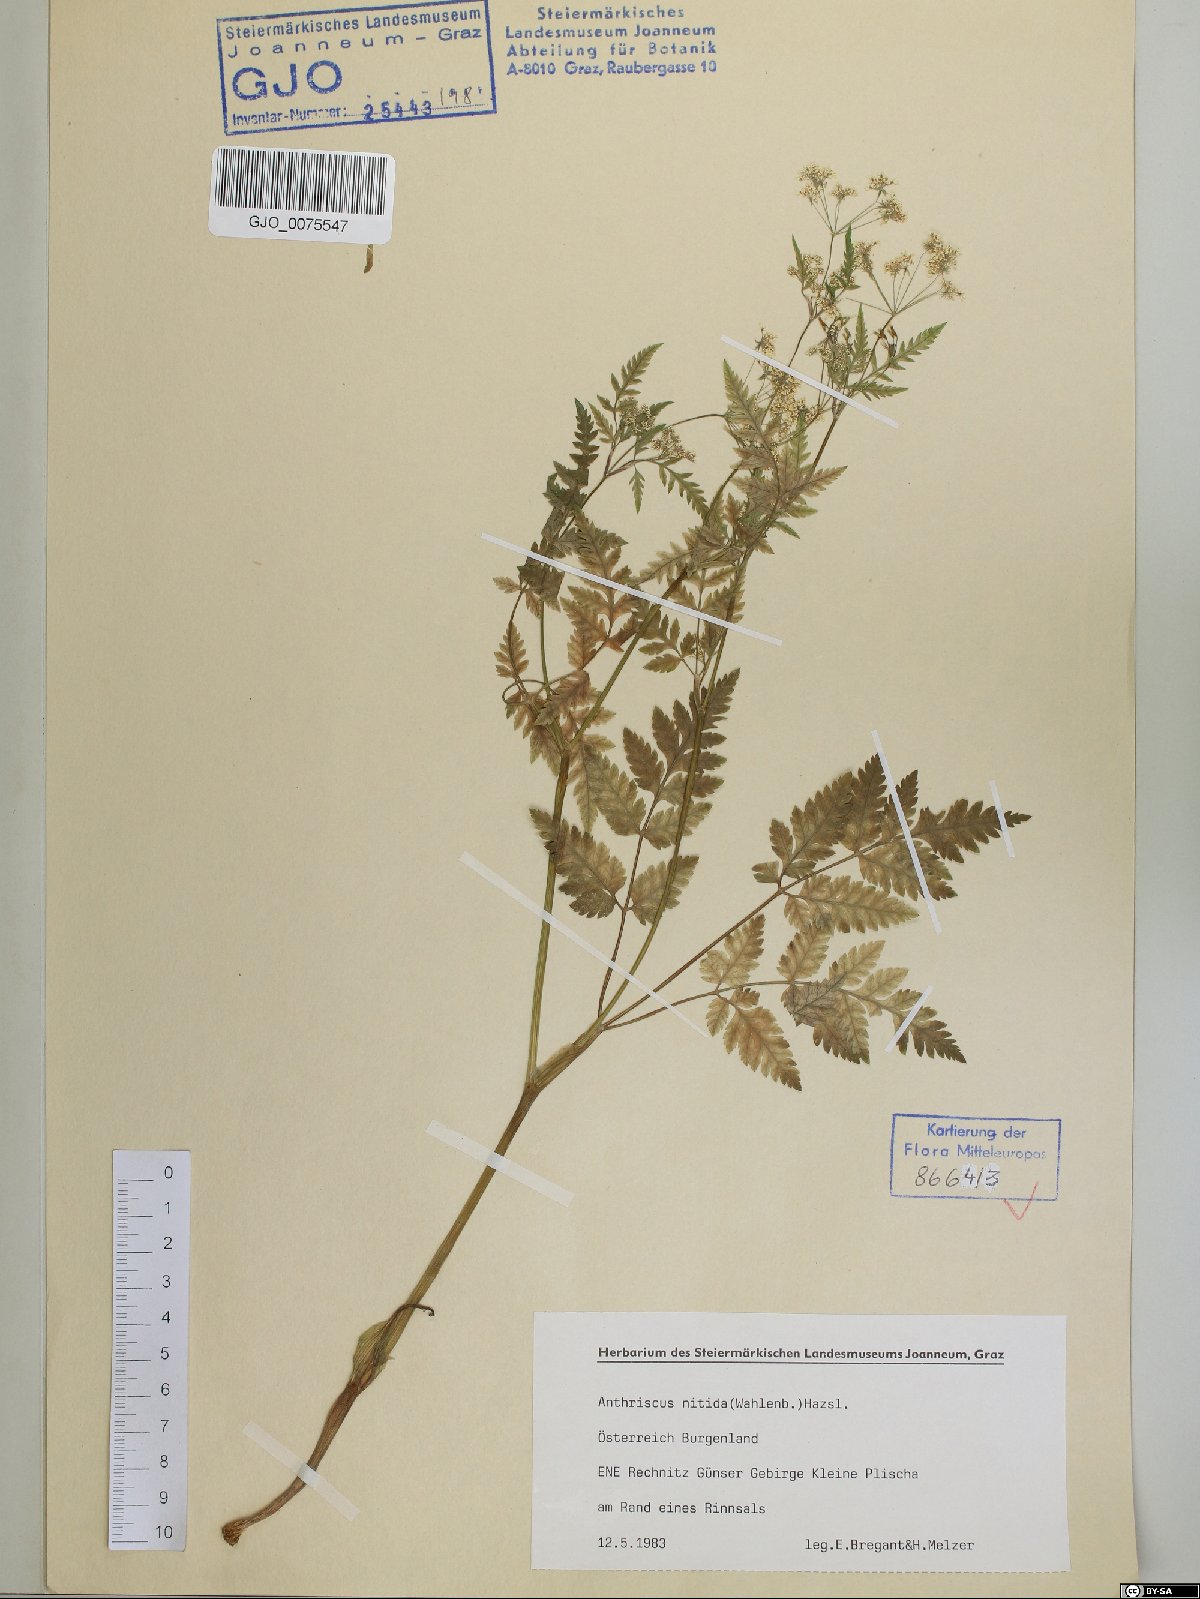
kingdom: Plantae
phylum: Tracheophyta
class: Magnoliopsida
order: Apiales
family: Apiaceae
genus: Anthriscus
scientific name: Anthriscus nitida
